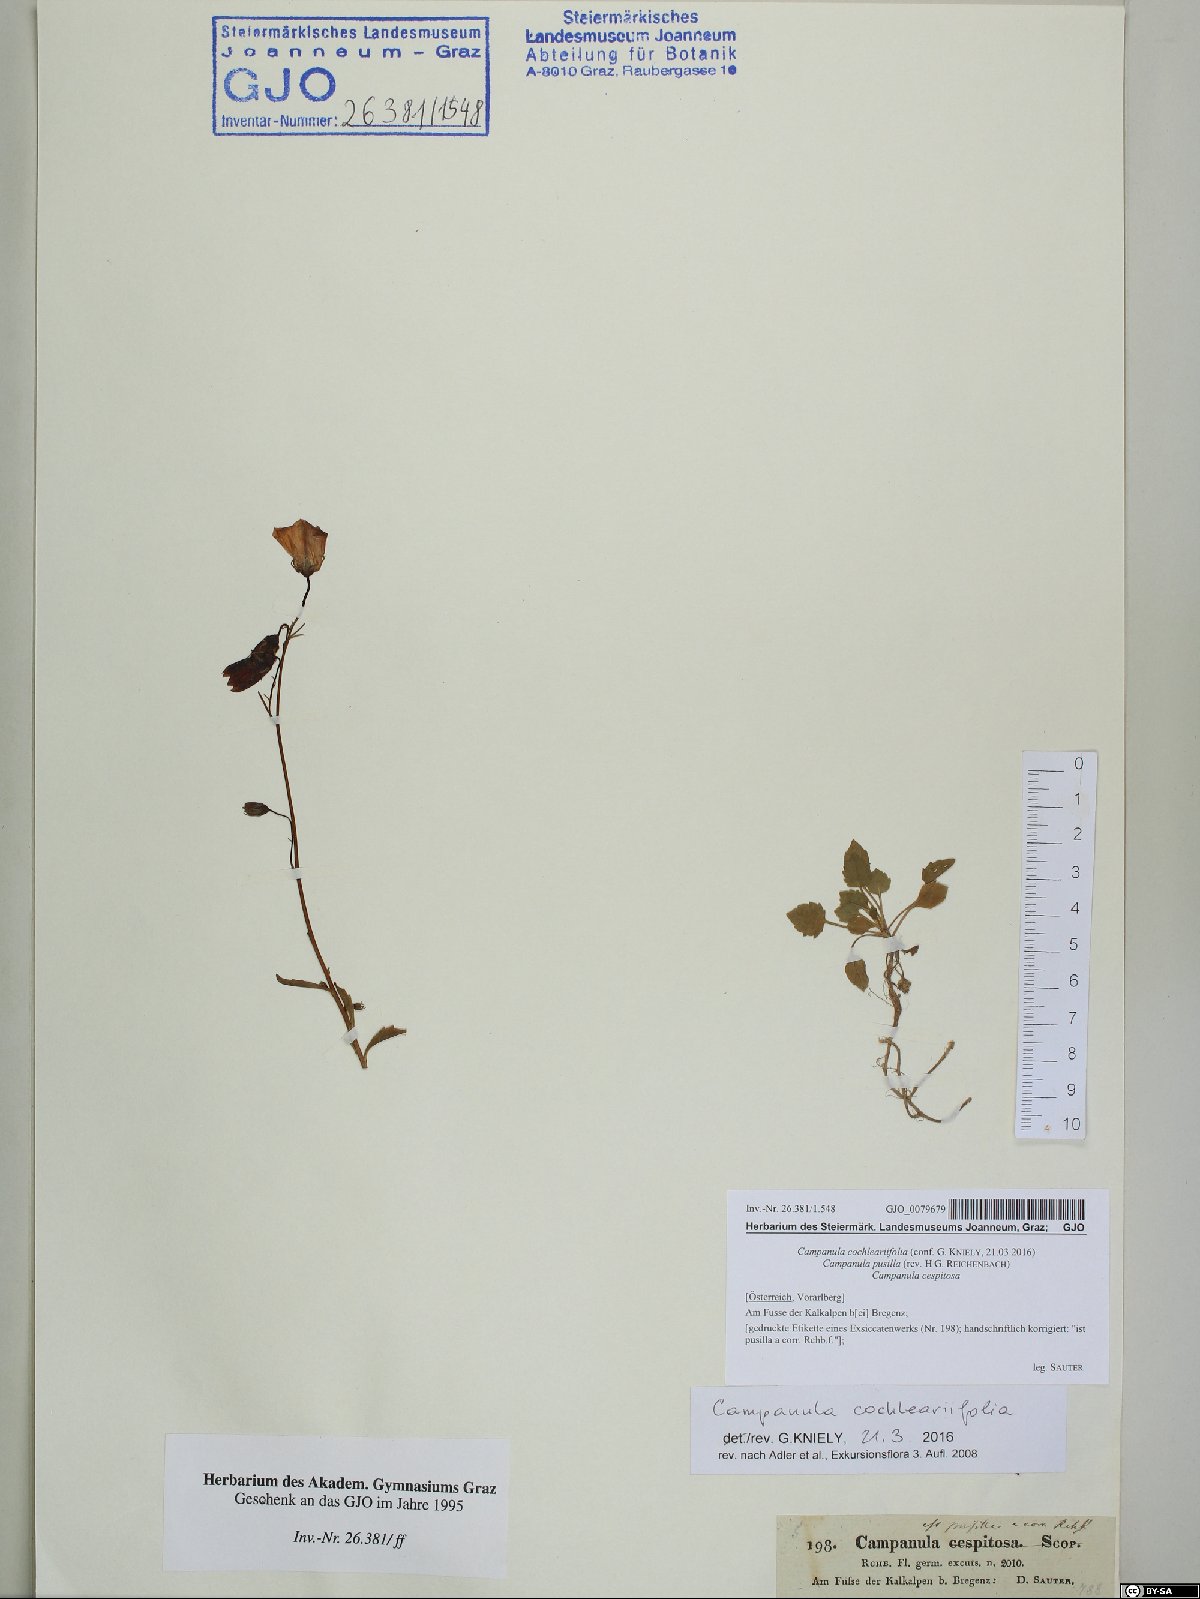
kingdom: Plantae
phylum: Tracheophyta
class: Magnoliopsida
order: Asterales
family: Campanulaceae
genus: Campanula
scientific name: Campanula cochleariifolia
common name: Fairies'-thimbles
